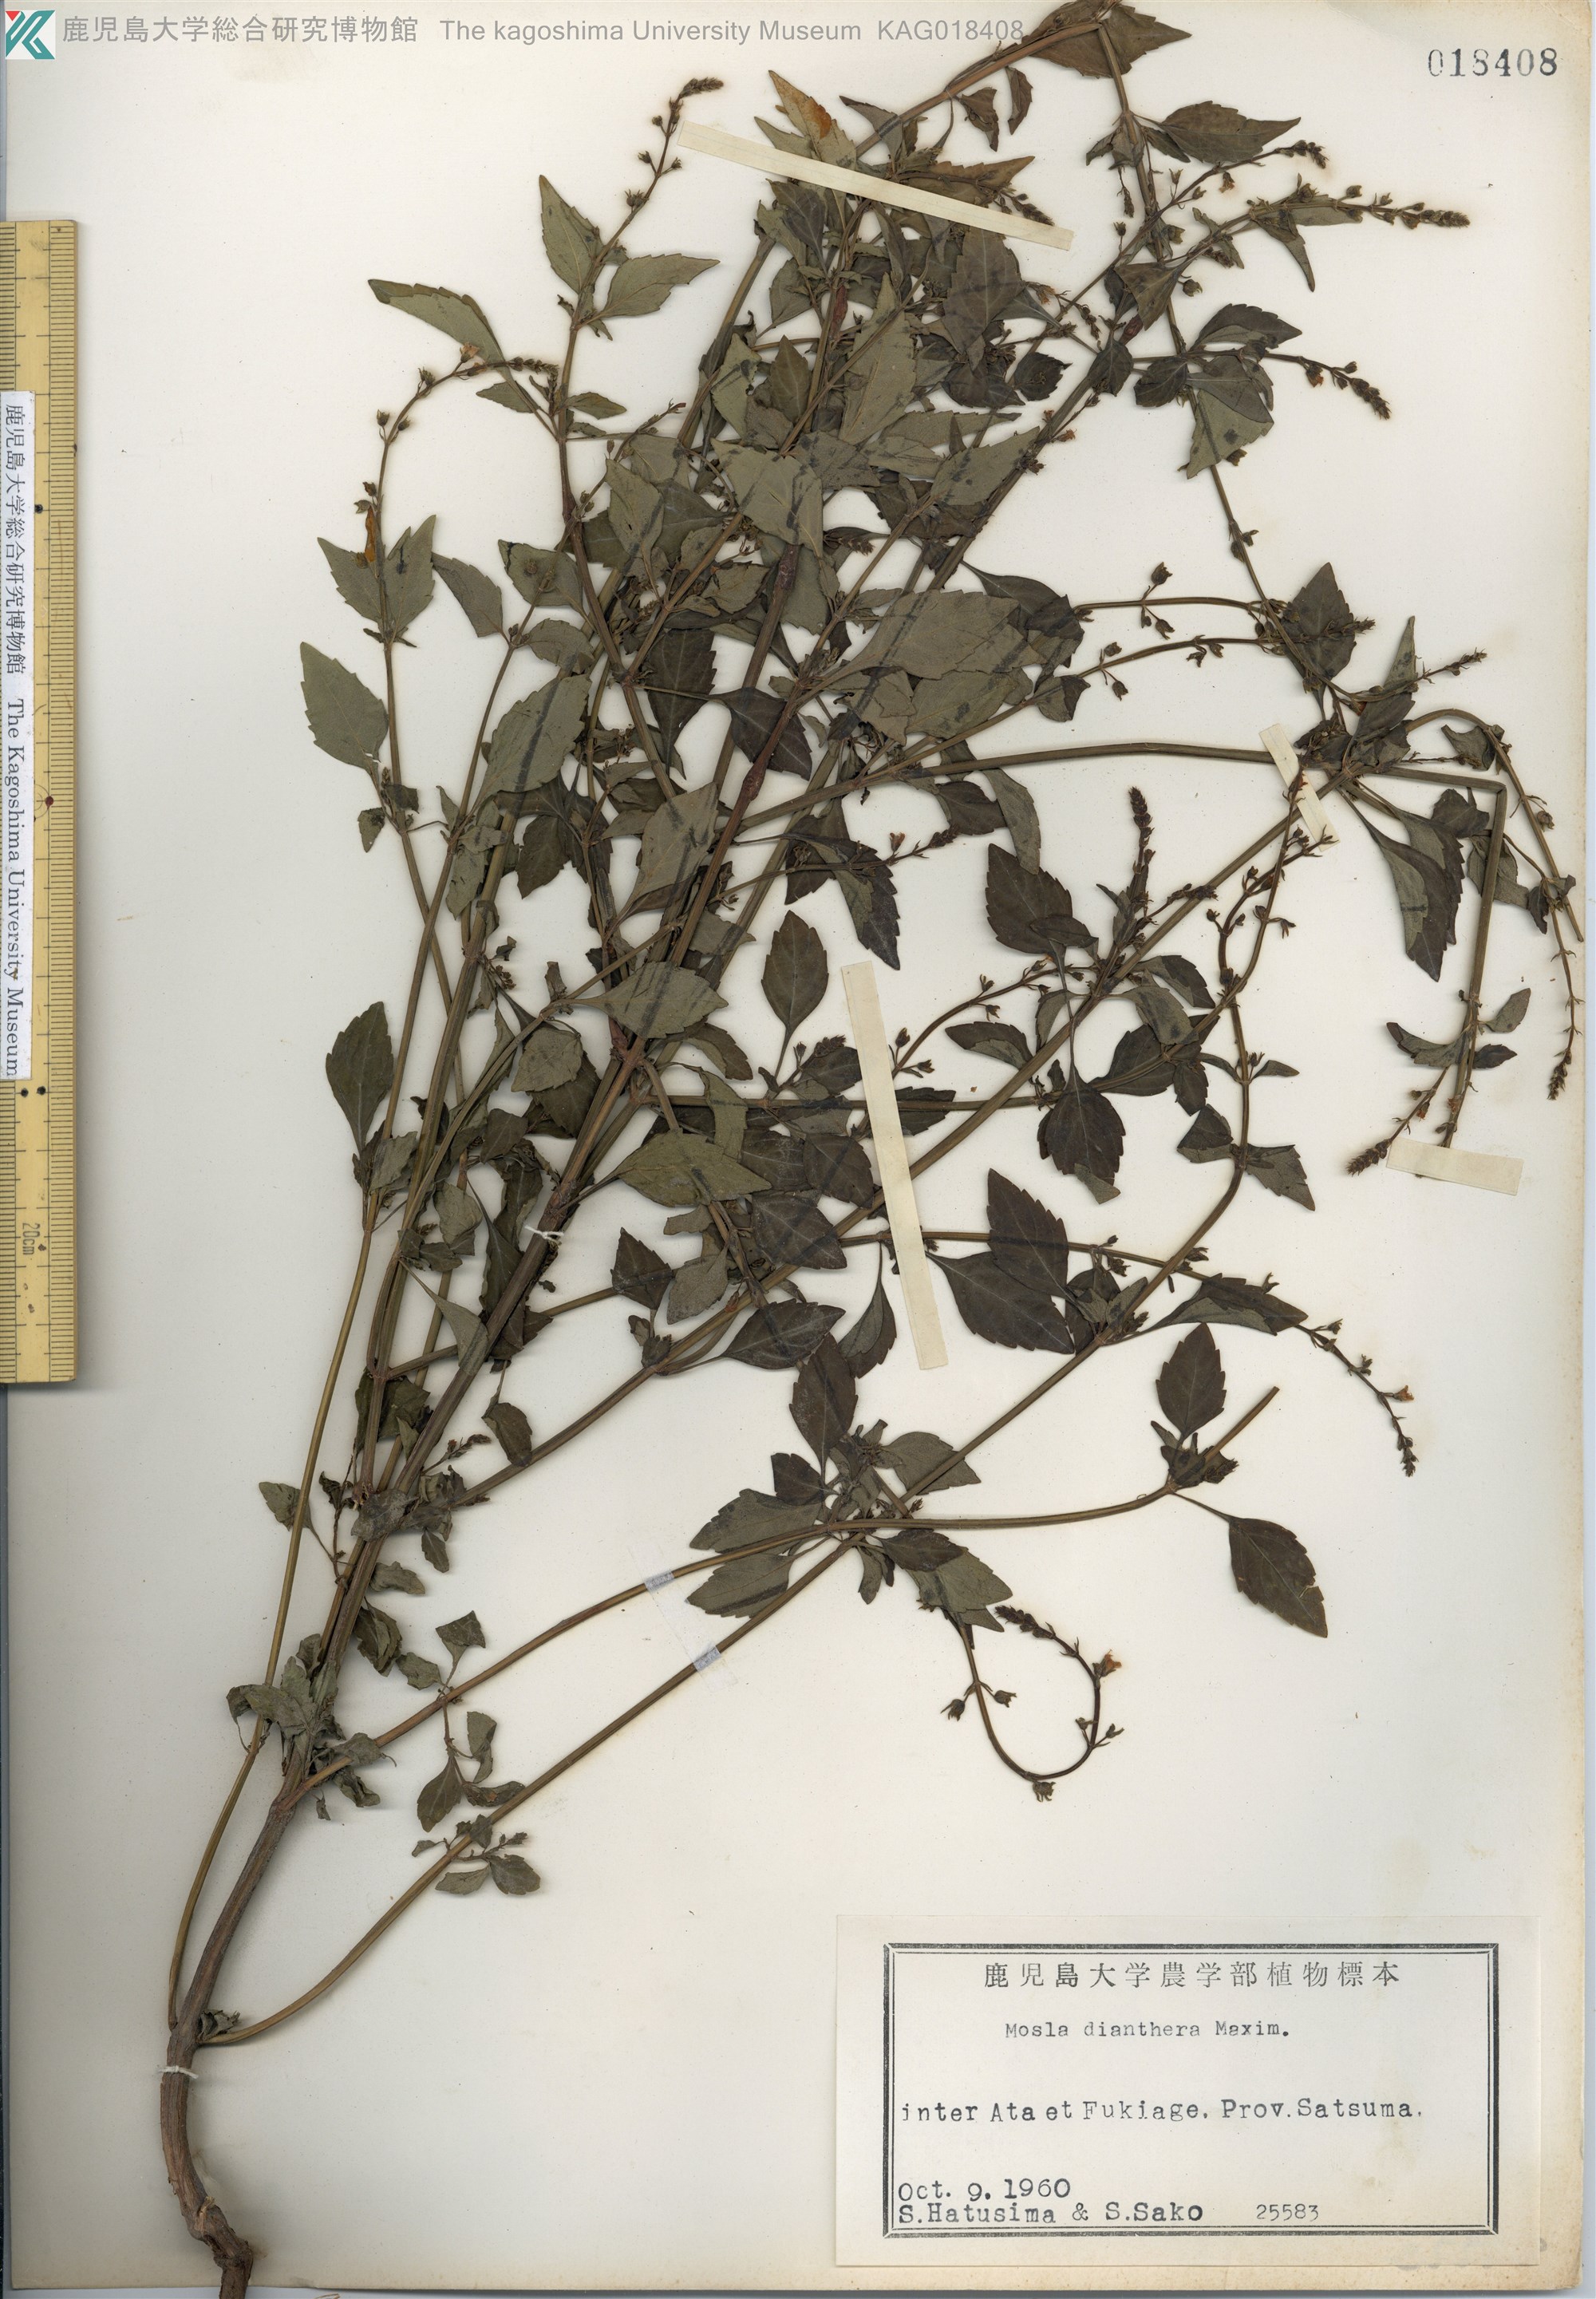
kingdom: Plantae
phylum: Tracheophyta
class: Magnoliopsida
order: Lamiales
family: Lamiaceae
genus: Mosla
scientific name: Mosla dianthera
